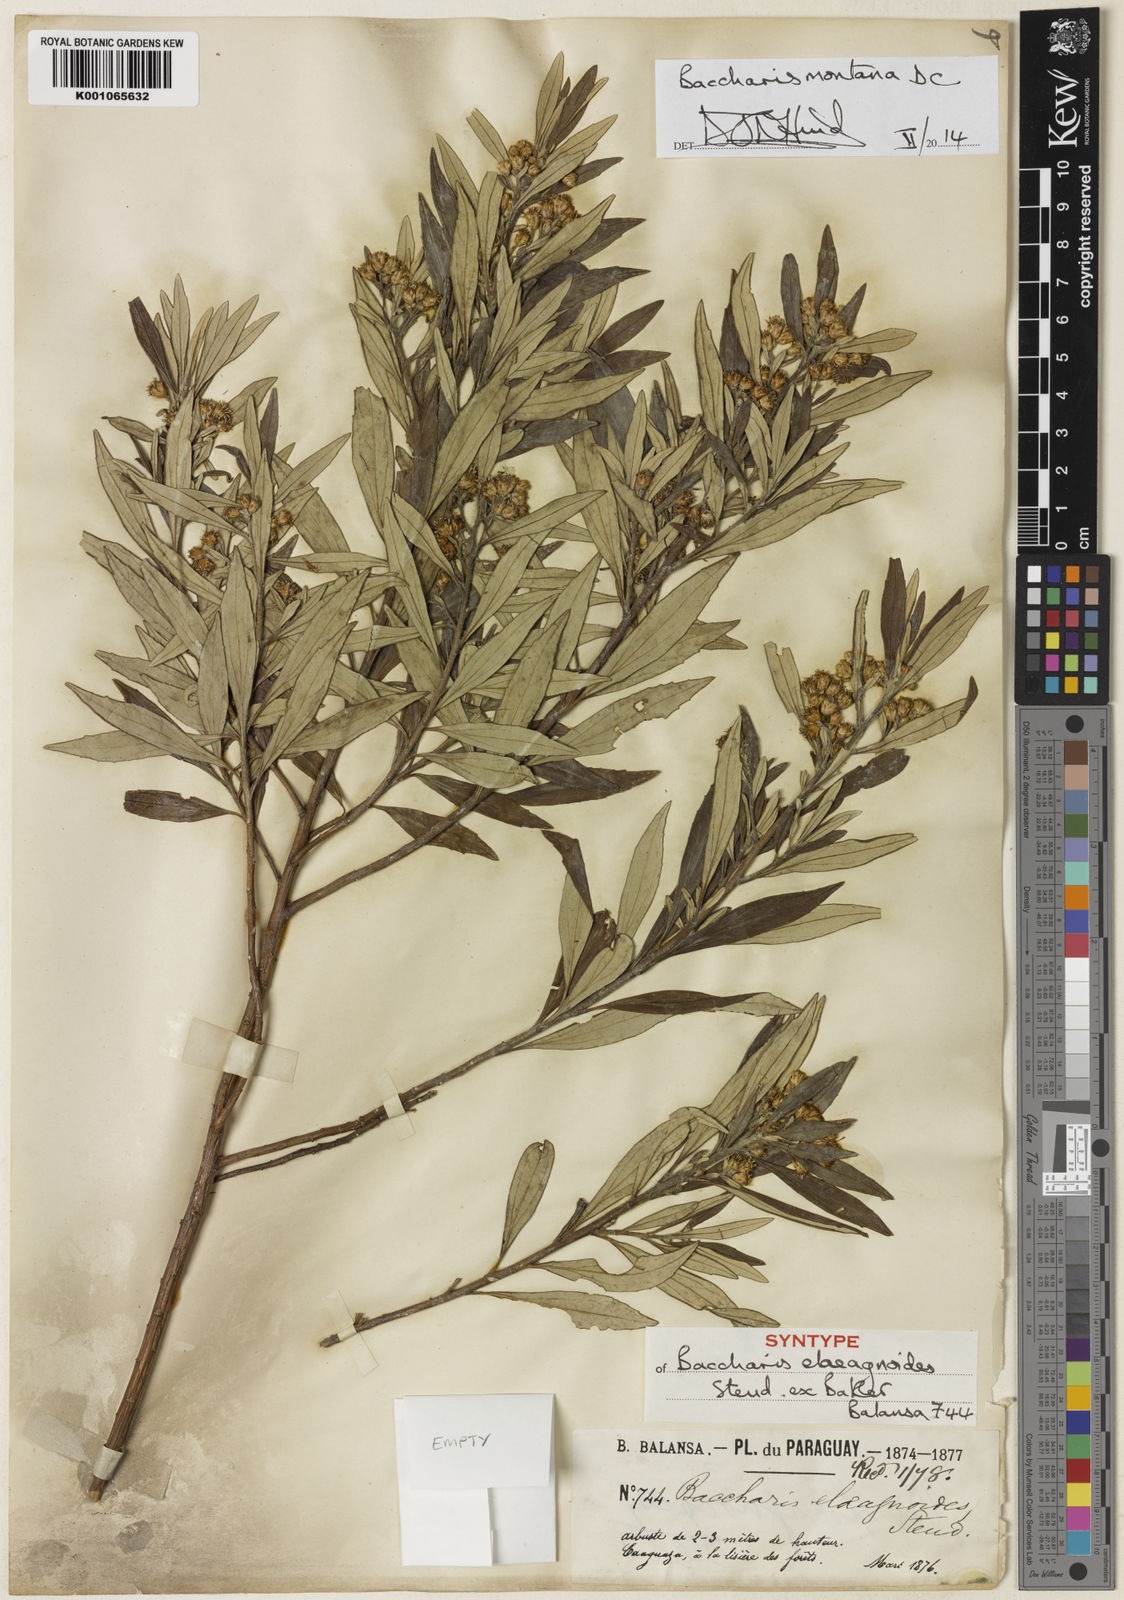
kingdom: Plantae
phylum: Tracheophyta
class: Magnoliopsida
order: Asterales
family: Asteraceae
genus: Baccharis
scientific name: Baccharis
